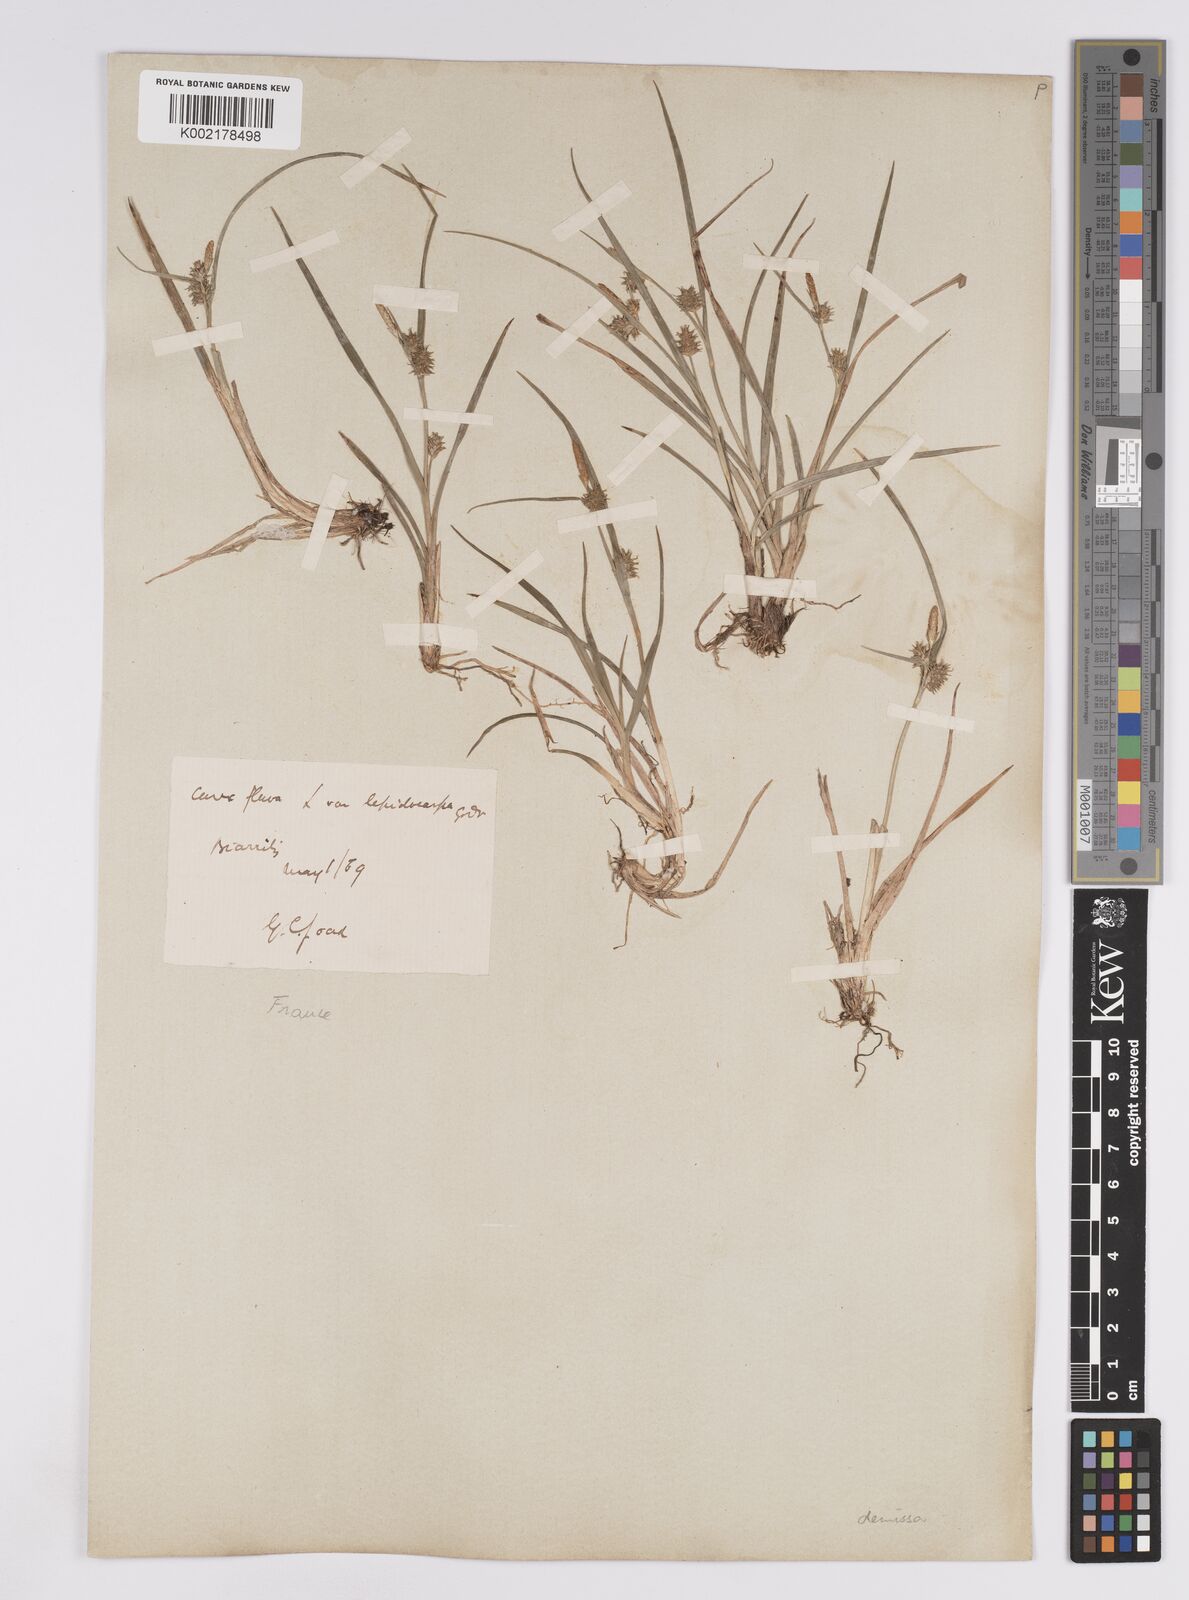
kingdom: Plantae
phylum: Tracheophyta
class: Liliopsida
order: Poales
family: Cyperaceae
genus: Carex
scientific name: Carex demissa
